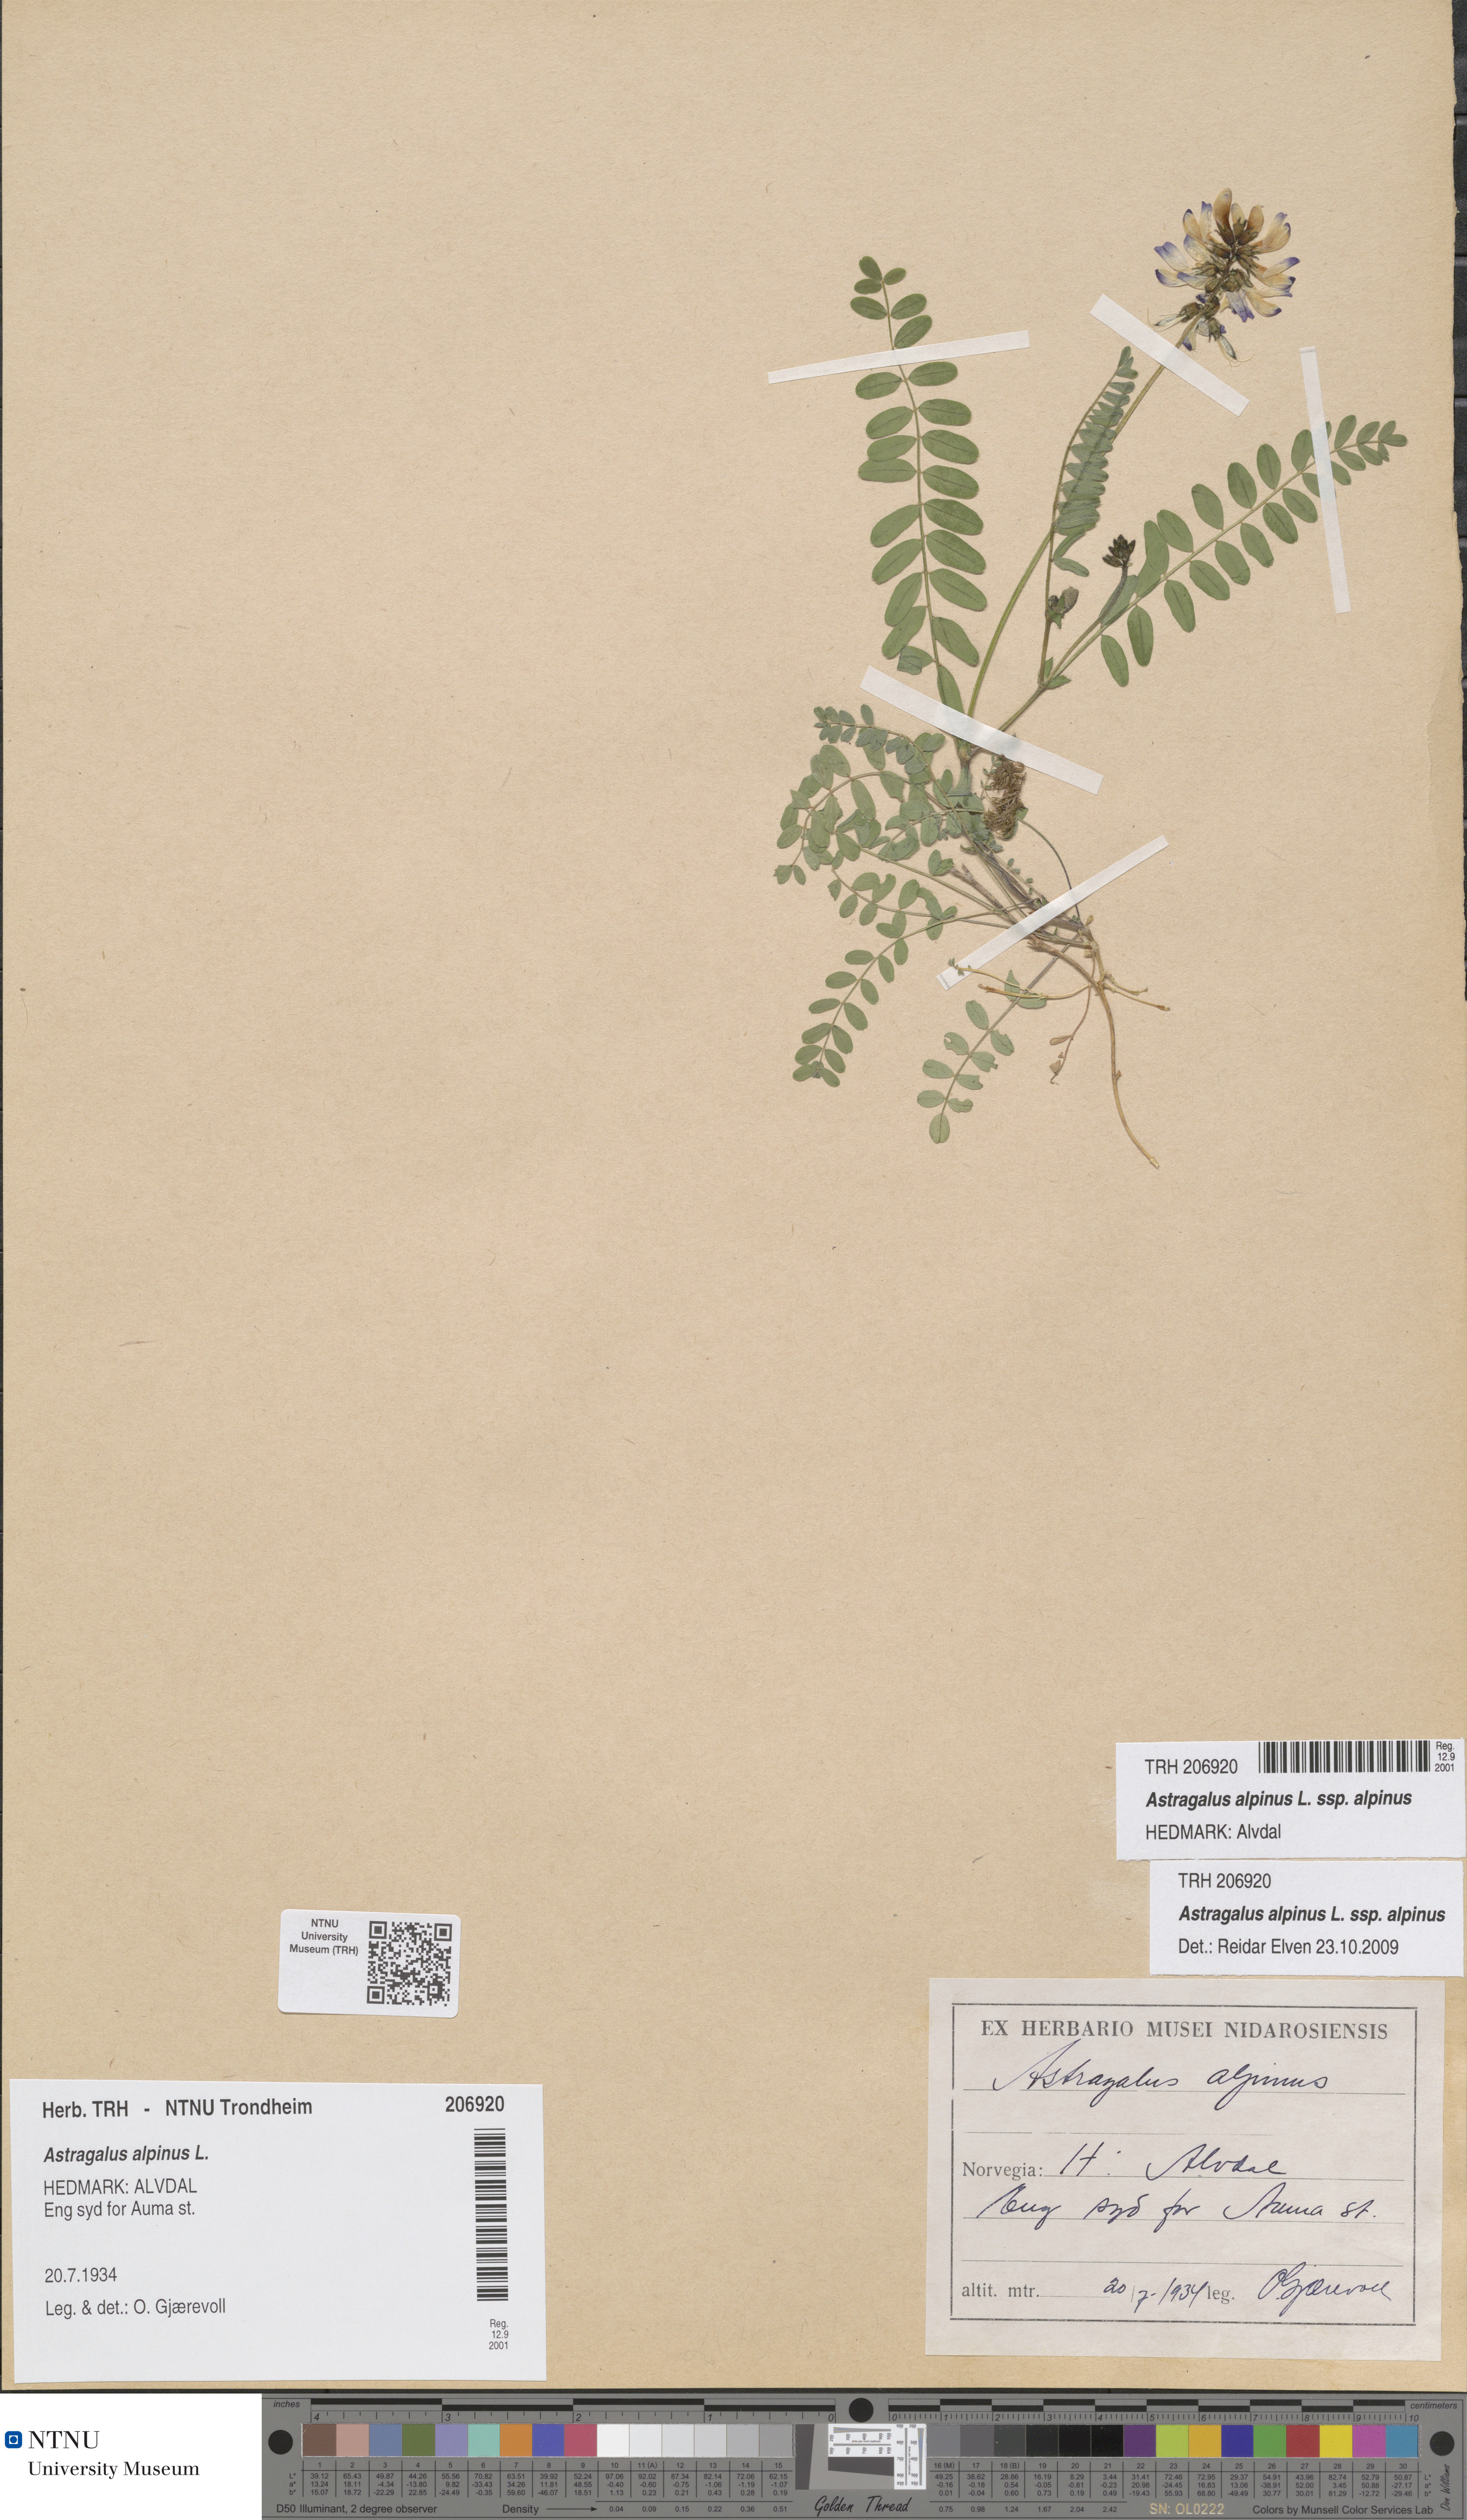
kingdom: Plantae
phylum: Tracheophyta
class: Magnoliopsida
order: Fabales
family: Fabaceae
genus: Astragalus
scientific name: Astragalus alpinus
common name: Alpine milk-vetch
